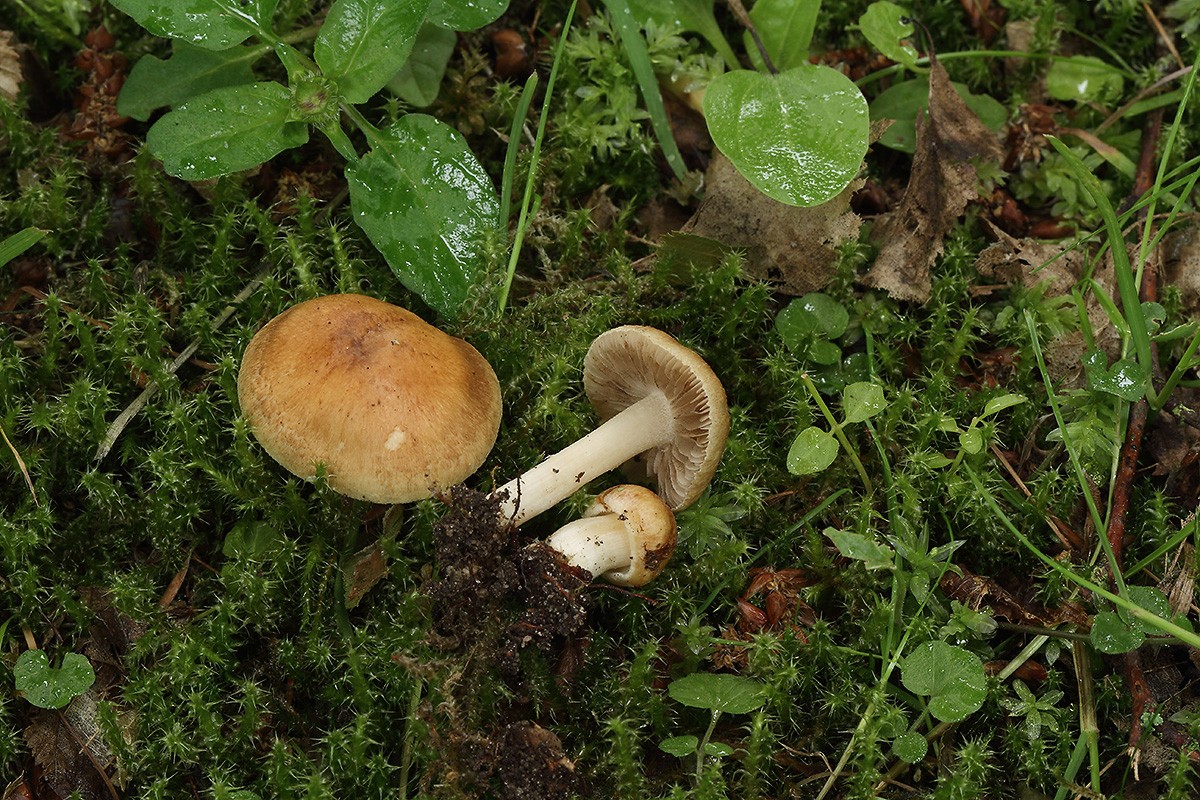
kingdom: Fungi
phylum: Basidiomycota
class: Agaricomycetes
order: Agaricales
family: Inocybaceae
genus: Inocybe
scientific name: Inocybe langei
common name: Langes trævlhat
